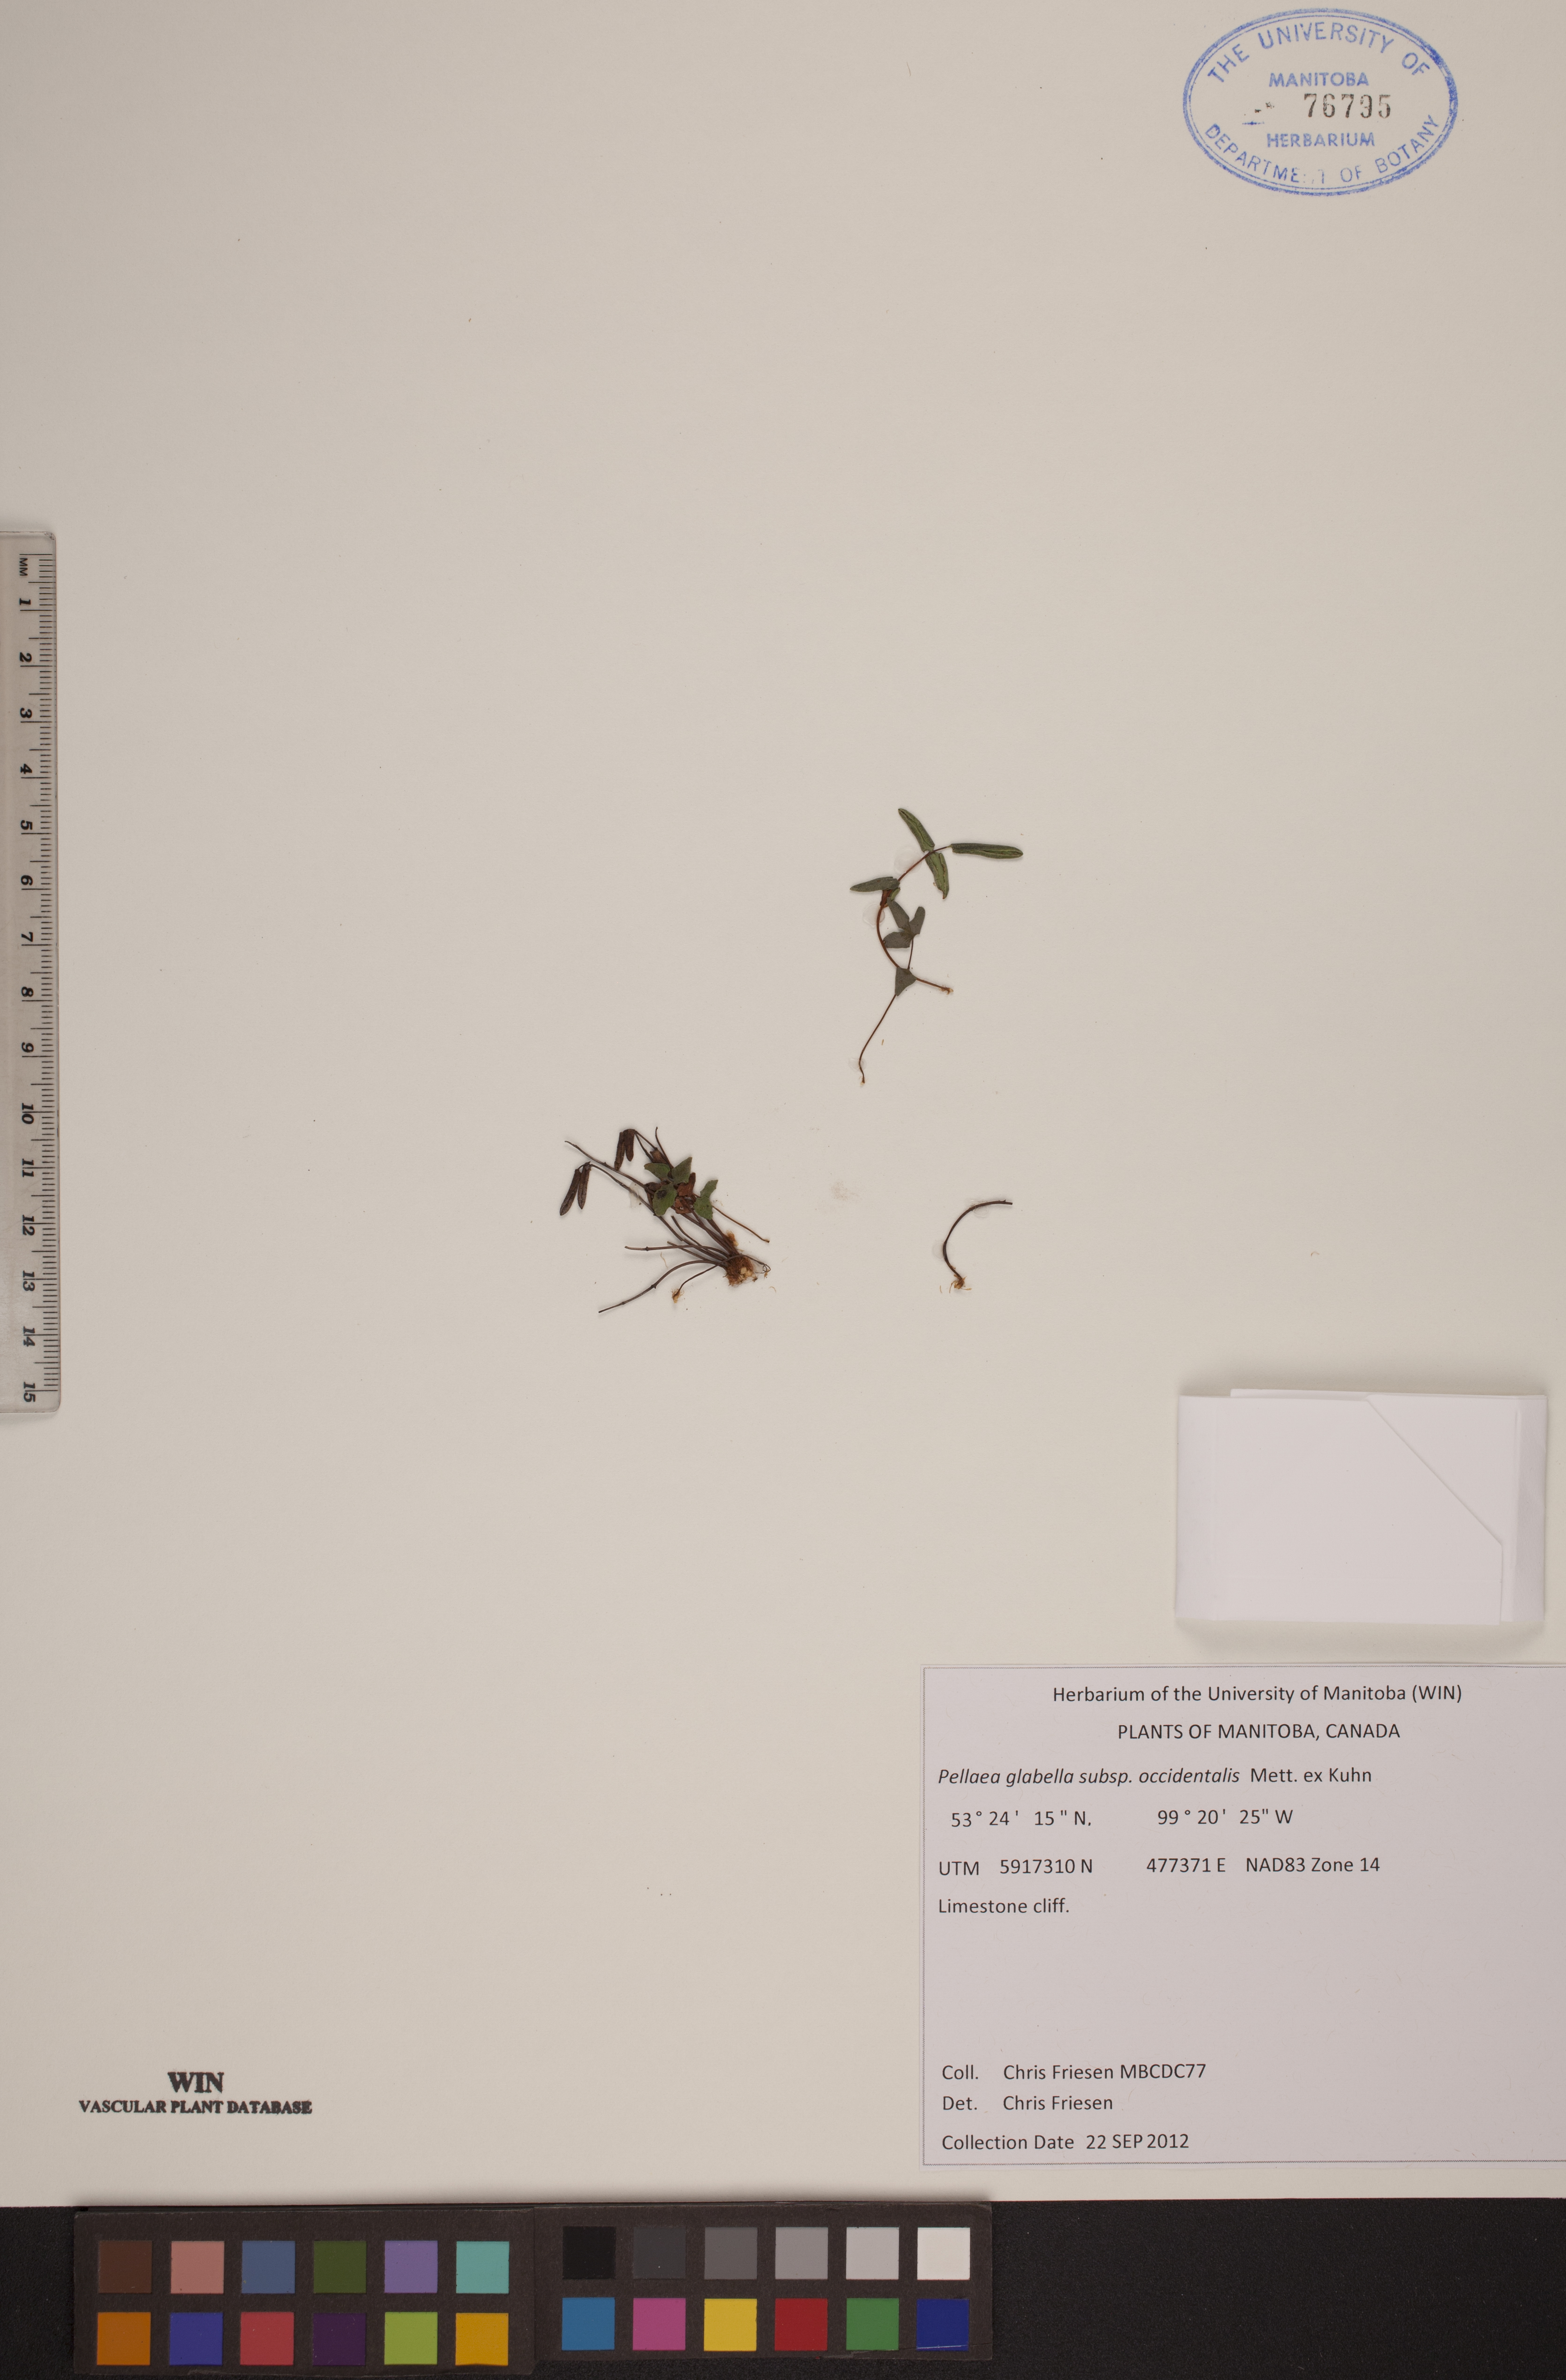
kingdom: Plantae
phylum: Tracheophyta
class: Polypodiopsida
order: Polypodiales
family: Pteridaceae
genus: Pellaea
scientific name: Pellaea glabella
